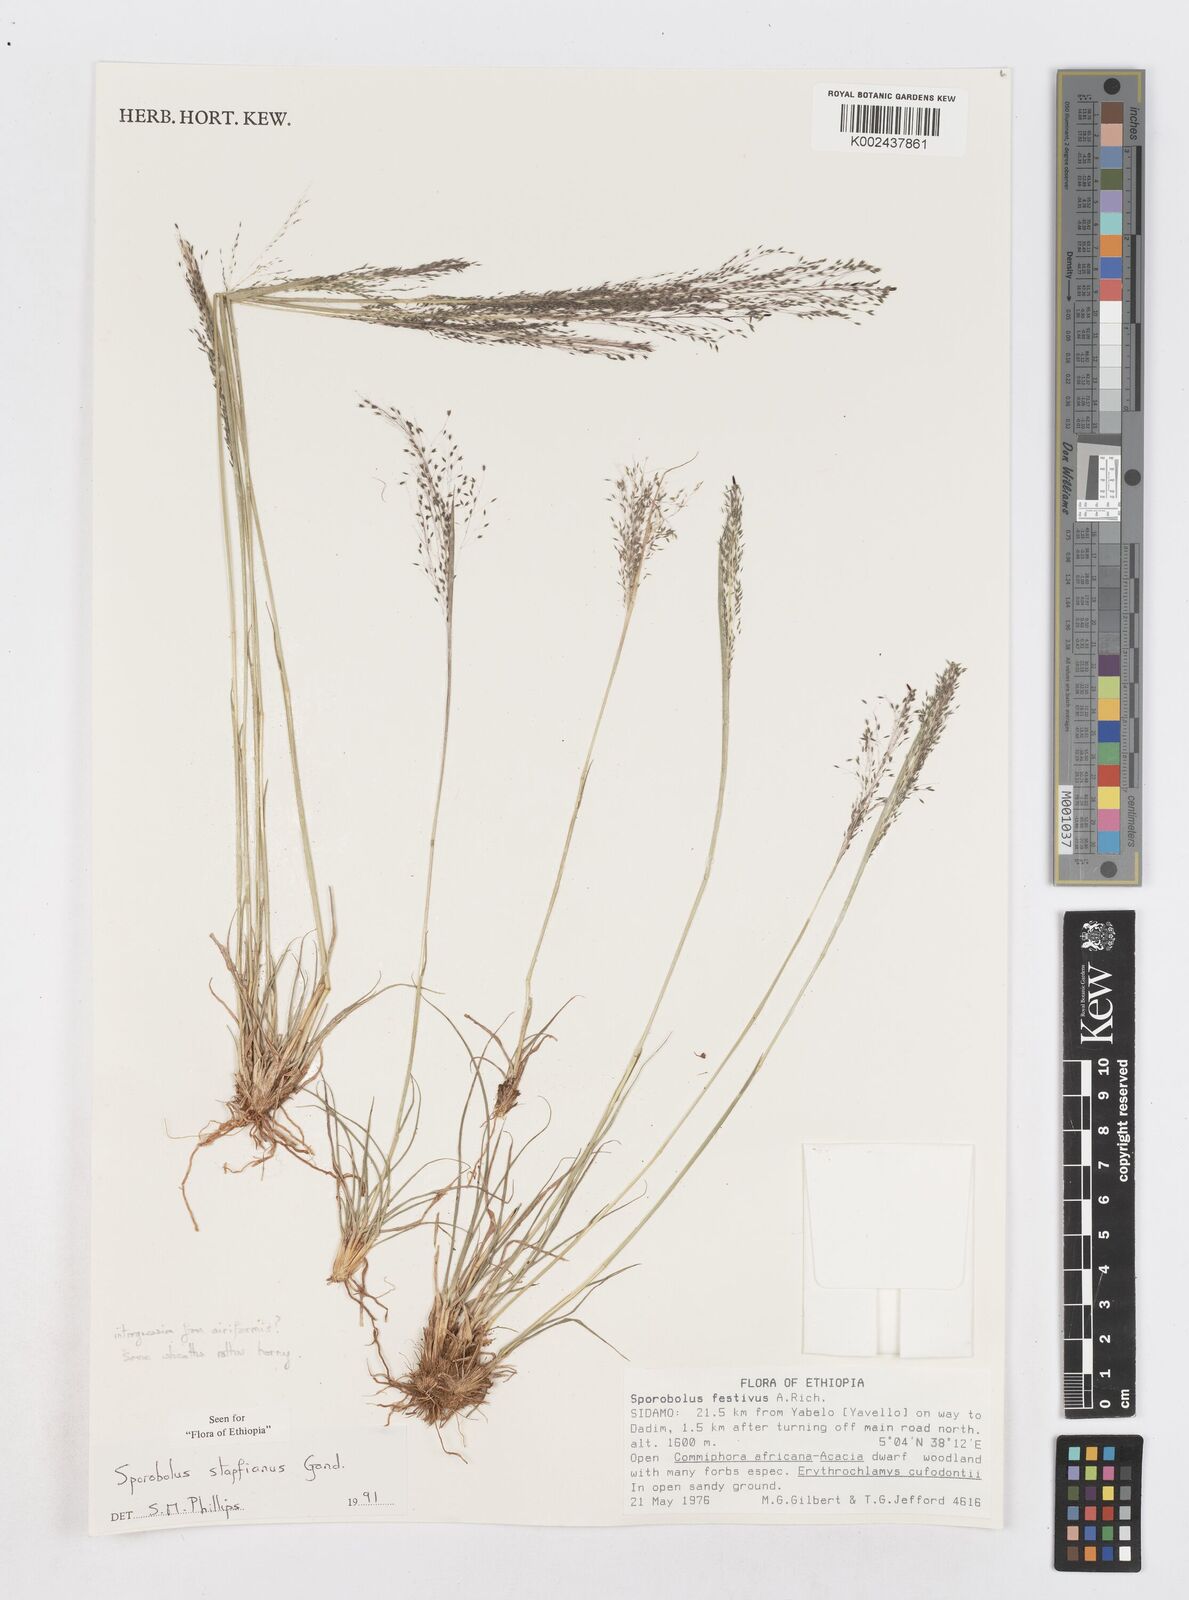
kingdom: Plantae
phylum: Tracheophyta
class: Liliopsida
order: Poales
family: Poaceae
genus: Sporobolus
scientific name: Sporobolus stapfianus
